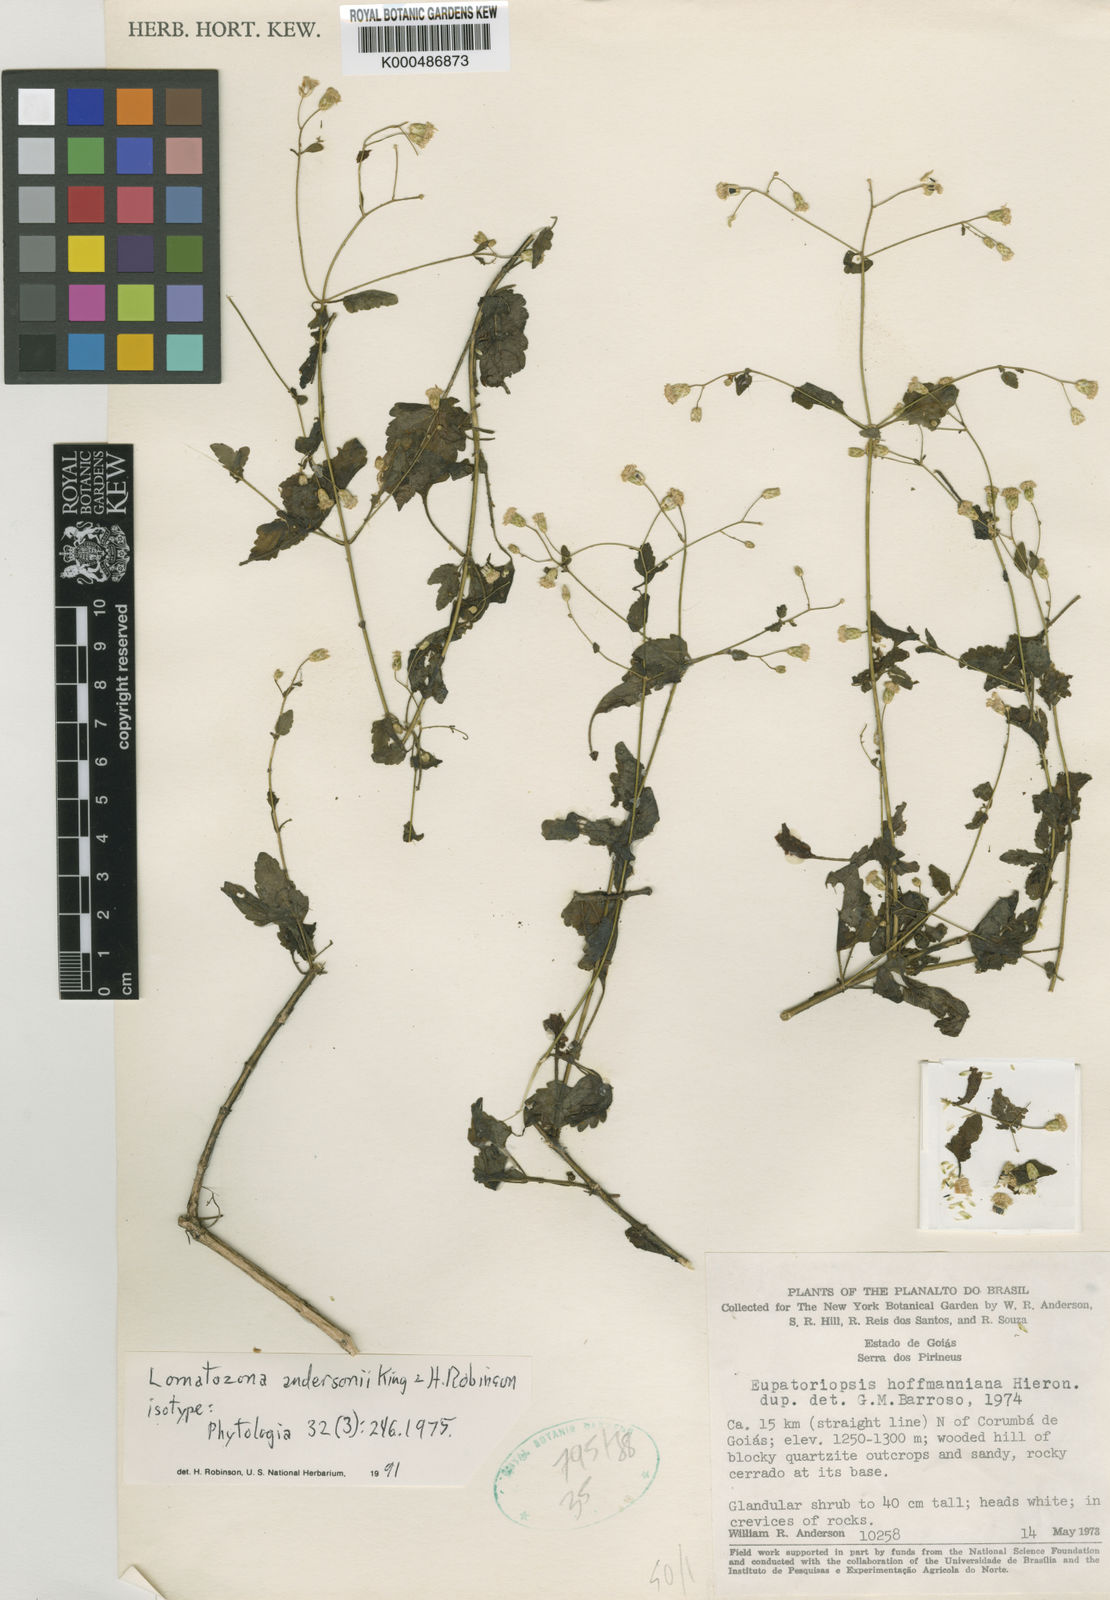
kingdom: Plantae
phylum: Tracheophyta
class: Magnoliopsida
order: Asterales
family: Asteraceae
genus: Lomatozona
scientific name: Lomatozona andersonii
